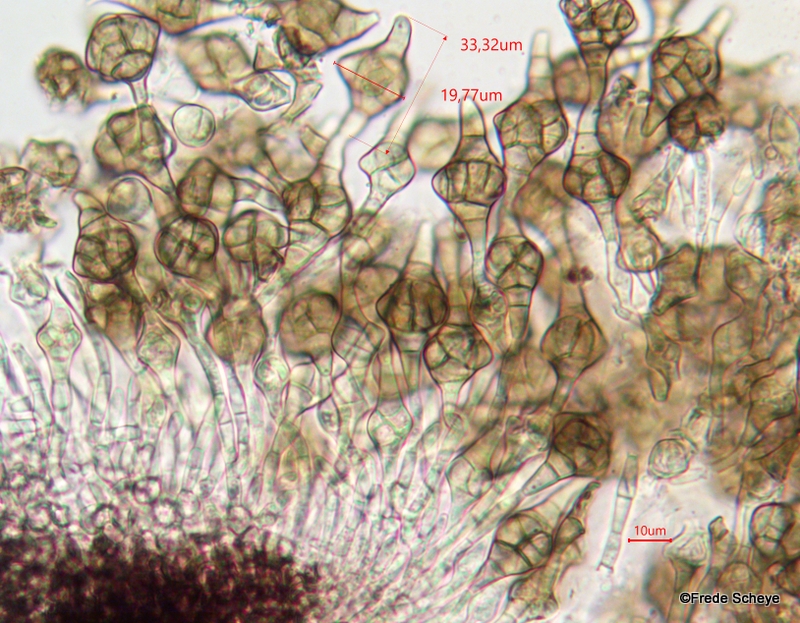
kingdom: Fungi
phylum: Ascomycota
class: Dothideomycetes
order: Pleosporales
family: Melanommataceae
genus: Phragmotrichum
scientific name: Phragmotrichum chailletii
